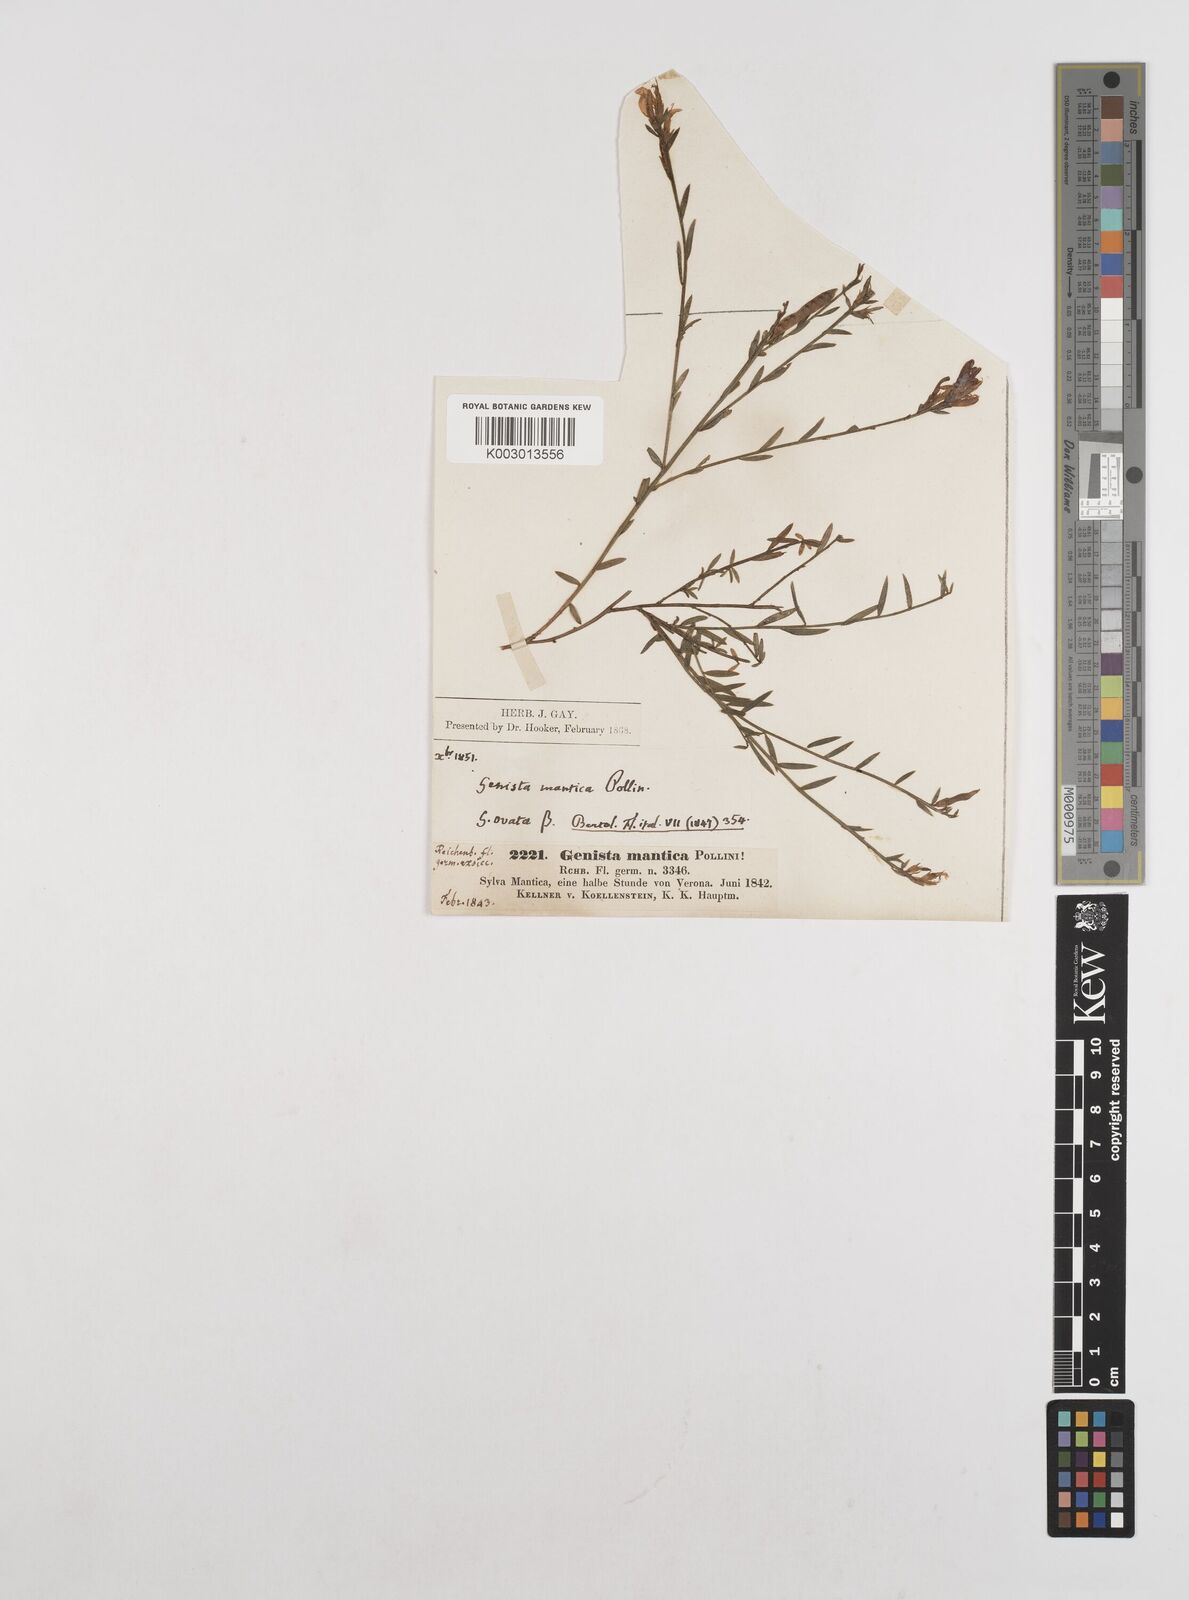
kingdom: Plantae
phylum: Tracheophyta
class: Magnoliopsida
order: Fabales
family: Fabaceae
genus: Genista
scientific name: Genista tinctoria
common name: Dyer's greenweed
